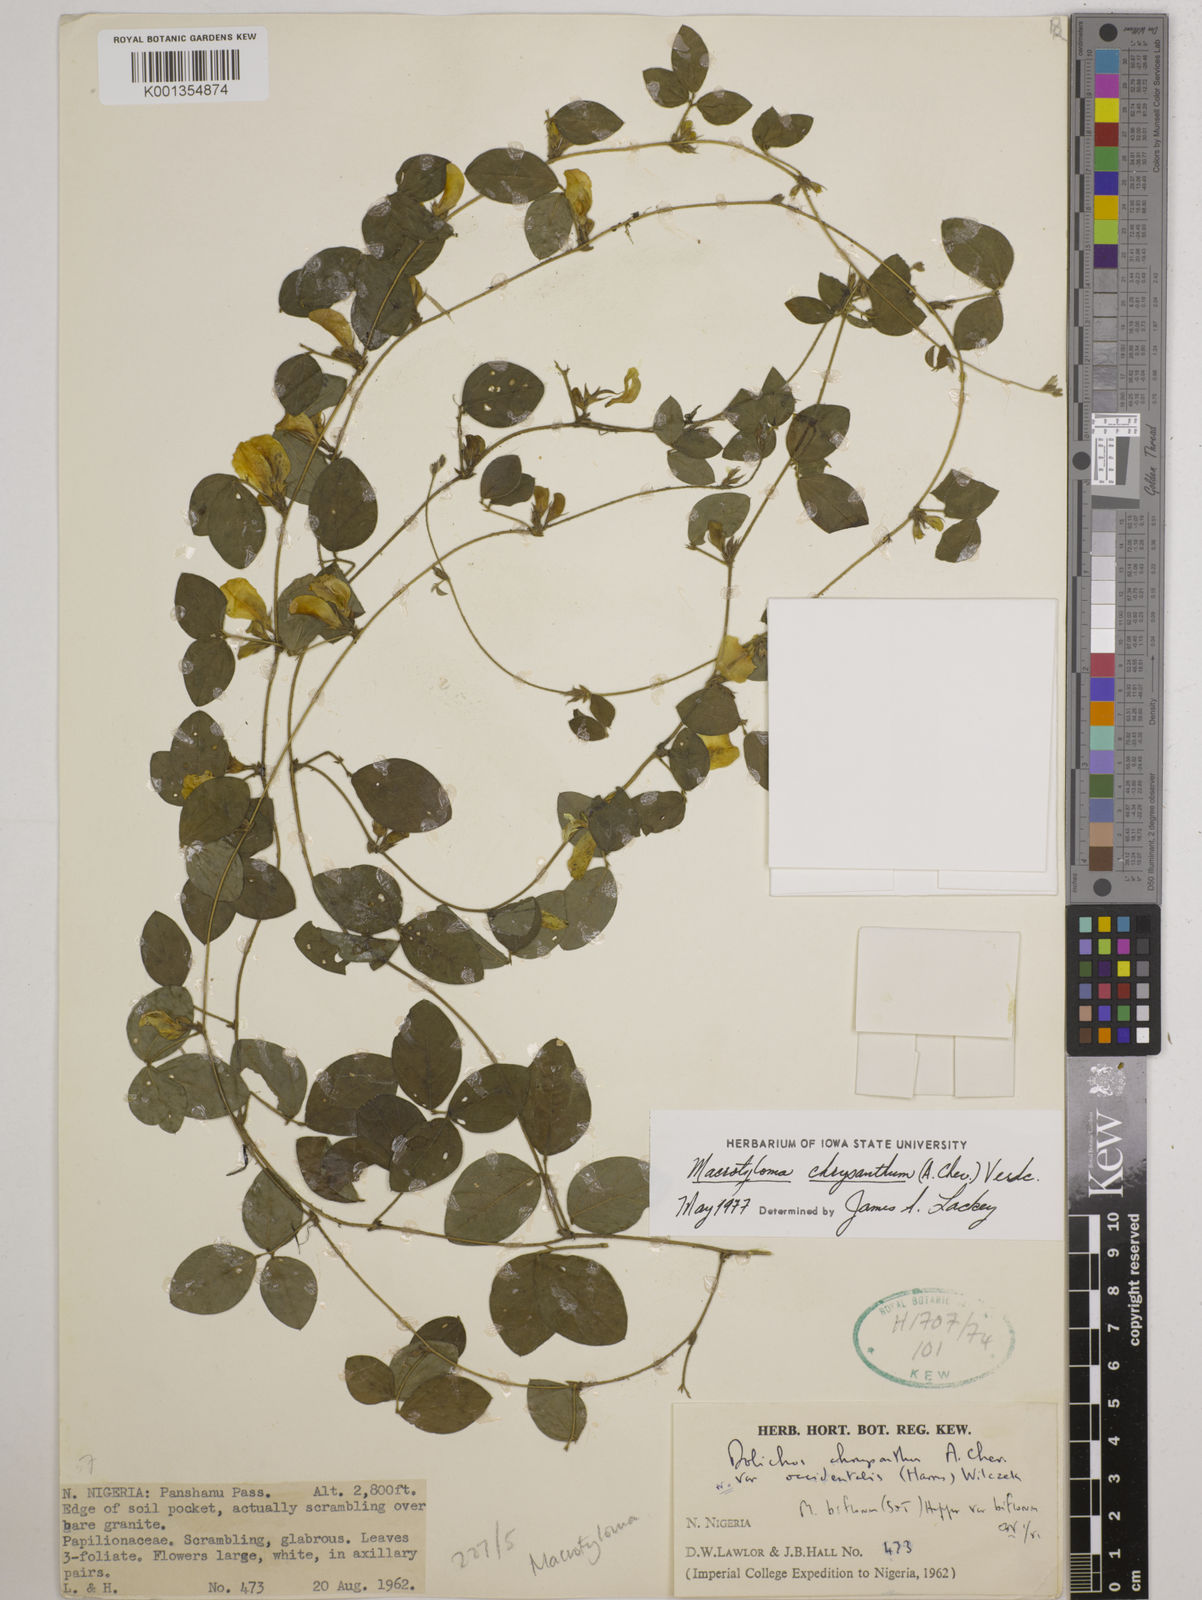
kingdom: Plantae
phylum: Tracheophyta
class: Magnoliopsida
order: Fabales
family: Fabaceae
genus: Macrotyloma
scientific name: Macrotyloma biflorum
